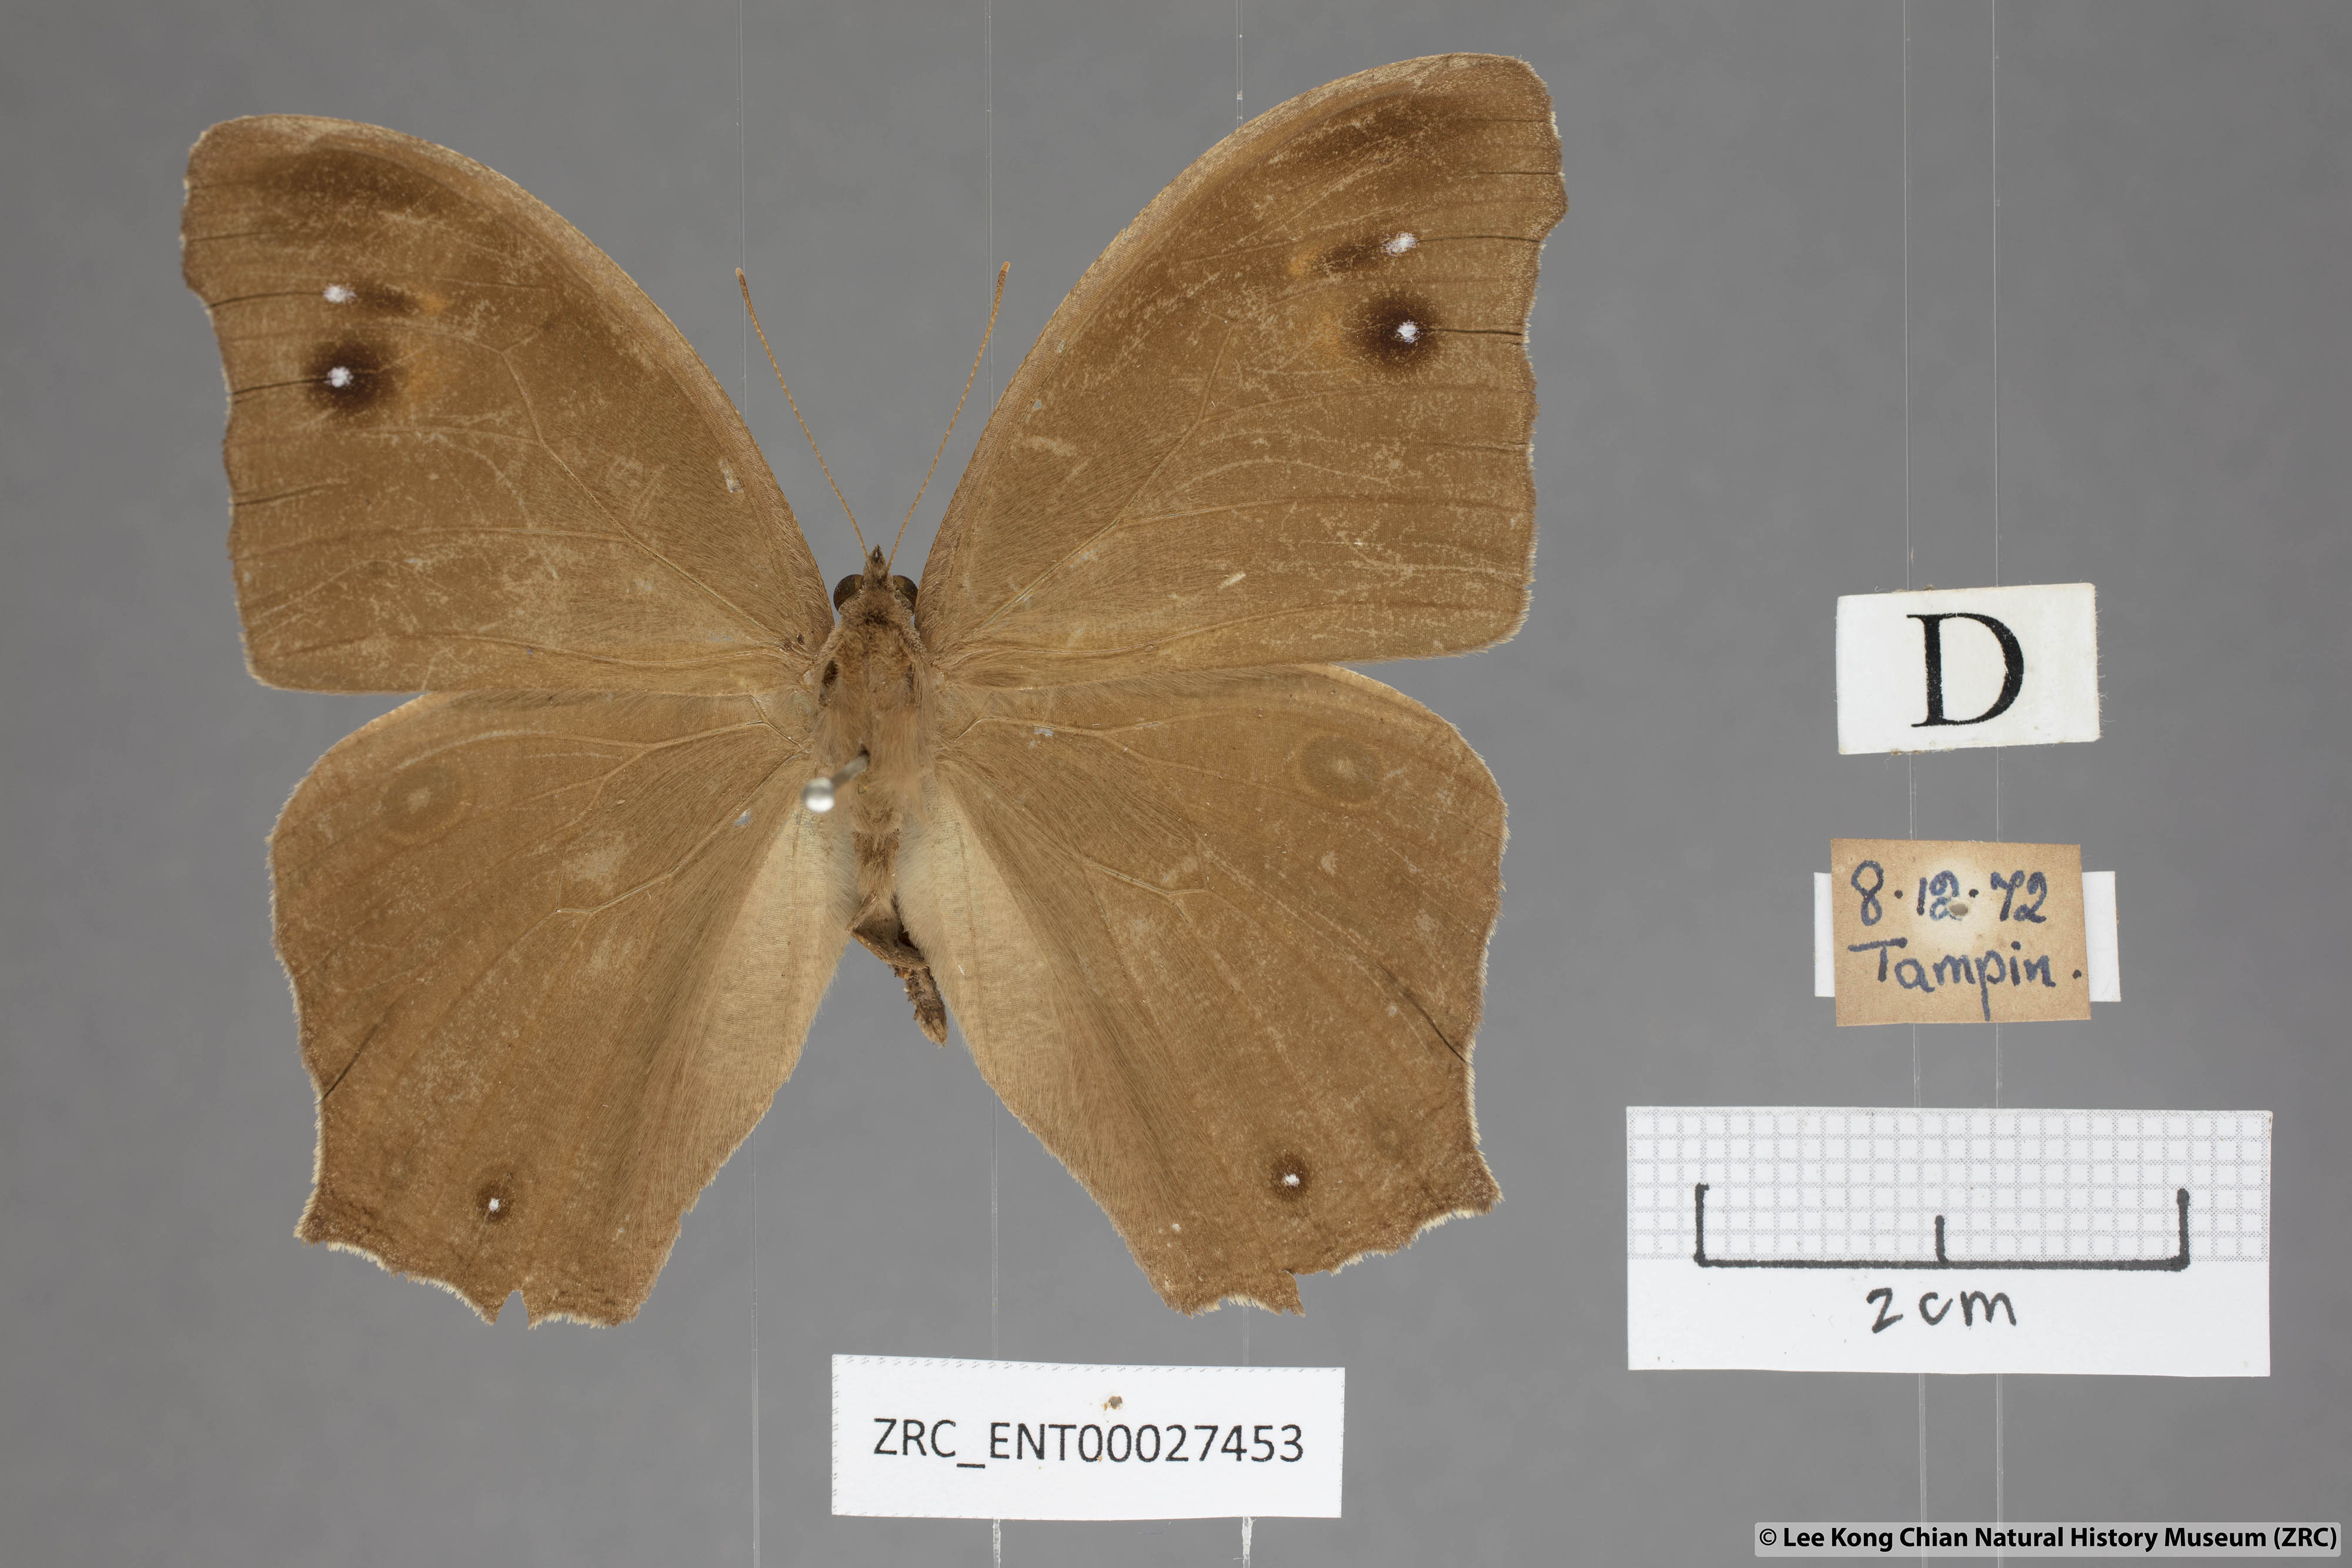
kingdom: Animalia
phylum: Arthropoda
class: Insecta
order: Lepidoptera
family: Nymphalidae
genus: Melanitis
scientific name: Melanitis leda
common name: Twilight brown
